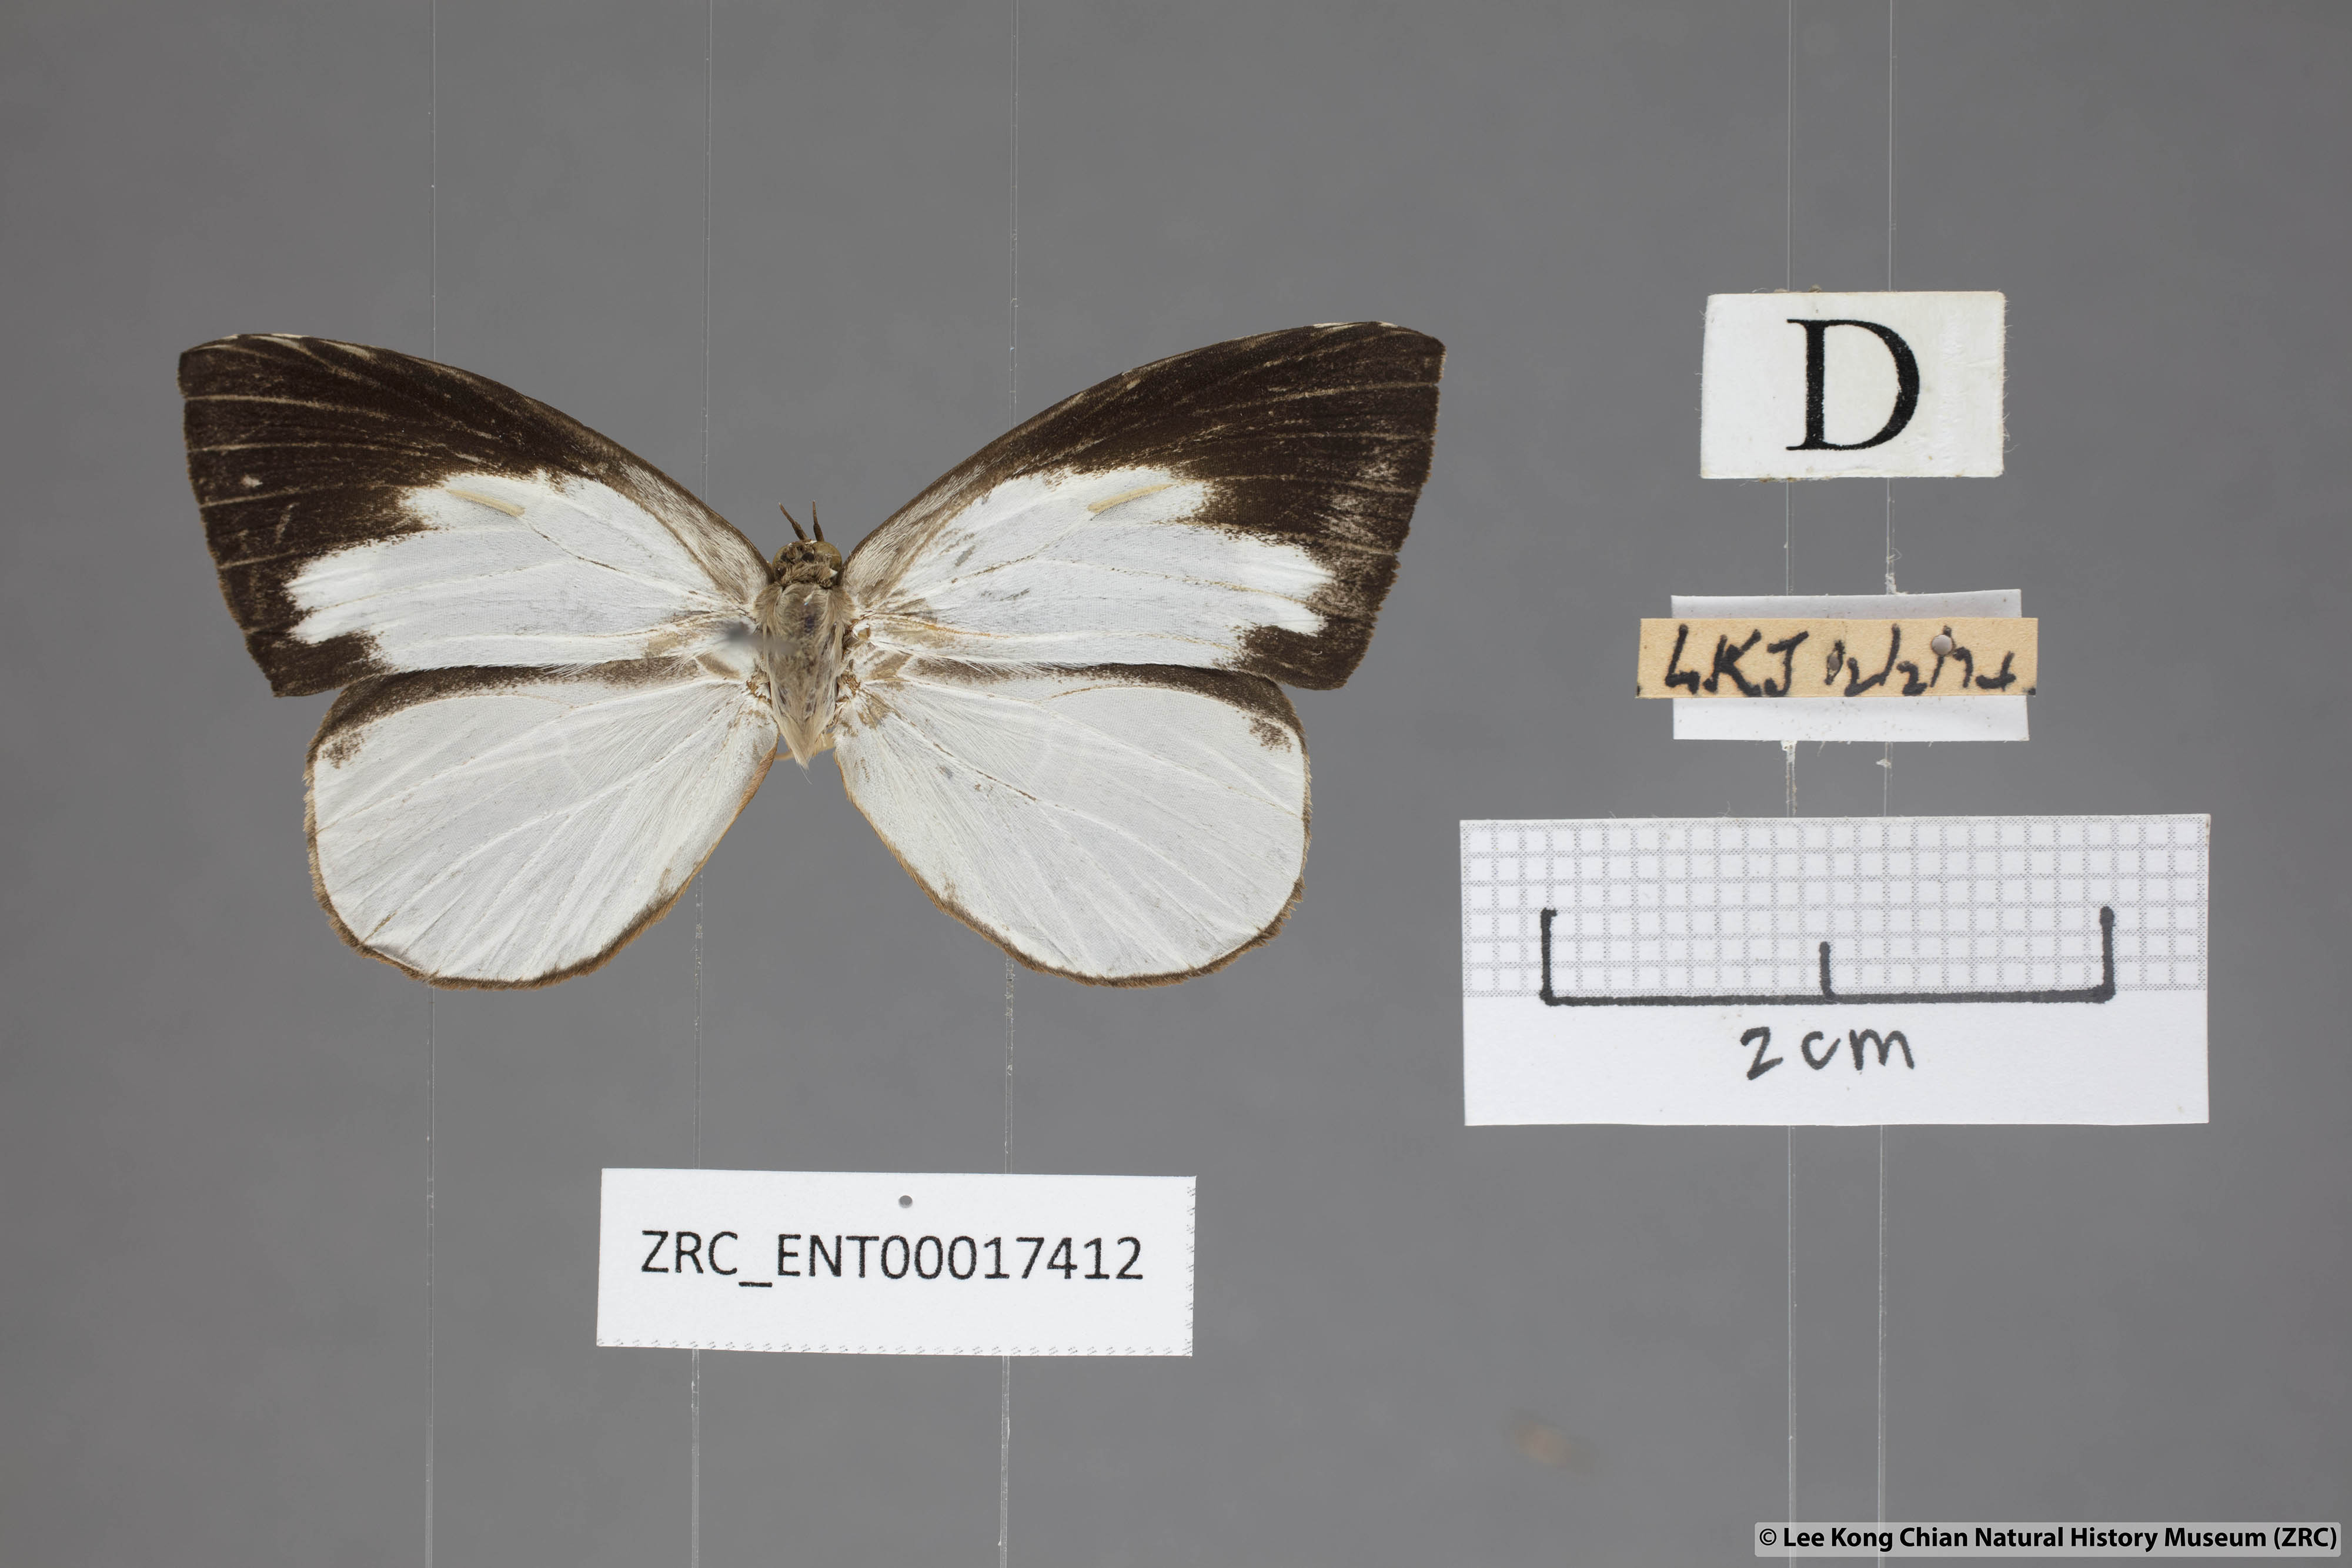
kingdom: Animalia
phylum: Arthropoda
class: Insecta
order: Lepidoptera
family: Lycaenidae
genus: Miletus
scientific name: Miletus
